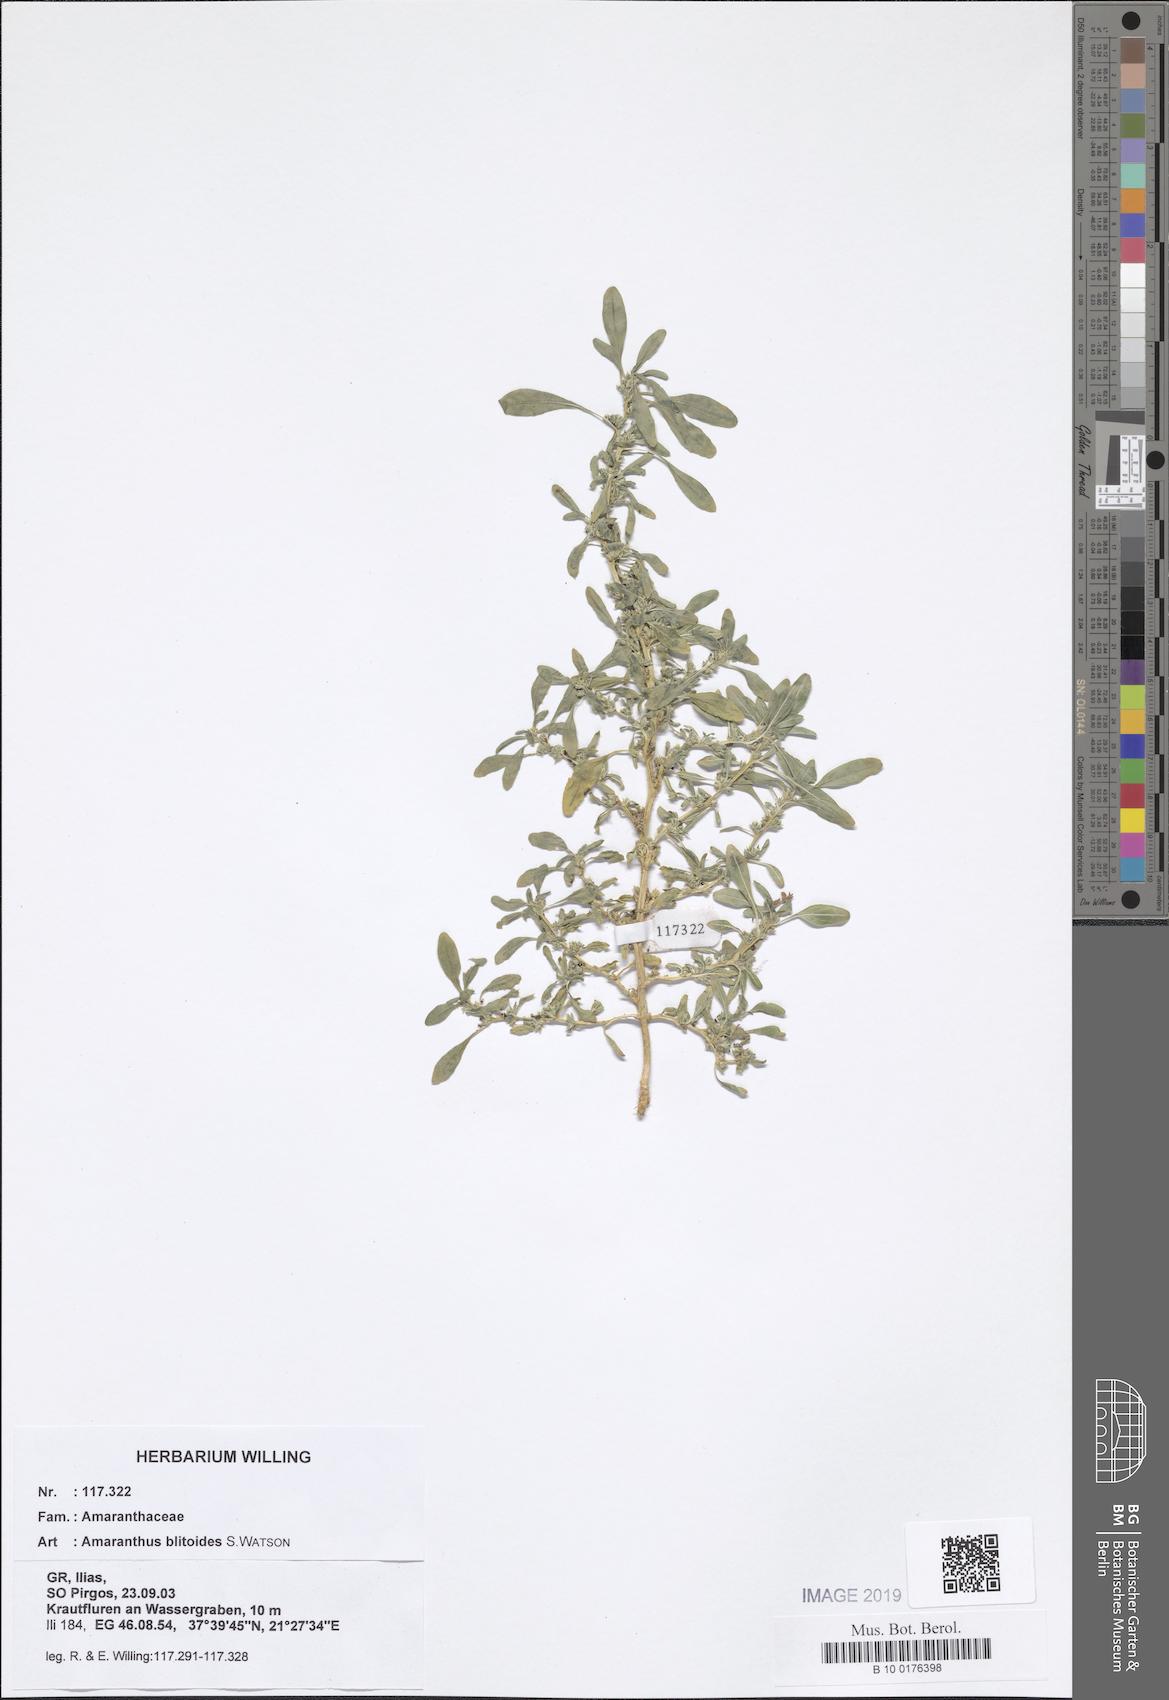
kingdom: Plantae
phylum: Tracheophyta
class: Magnoliopsida
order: Caryophyllales
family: Amaranthaceae
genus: Amaranthus
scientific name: Amaranthus blitoides
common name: Prostrate pigweed
